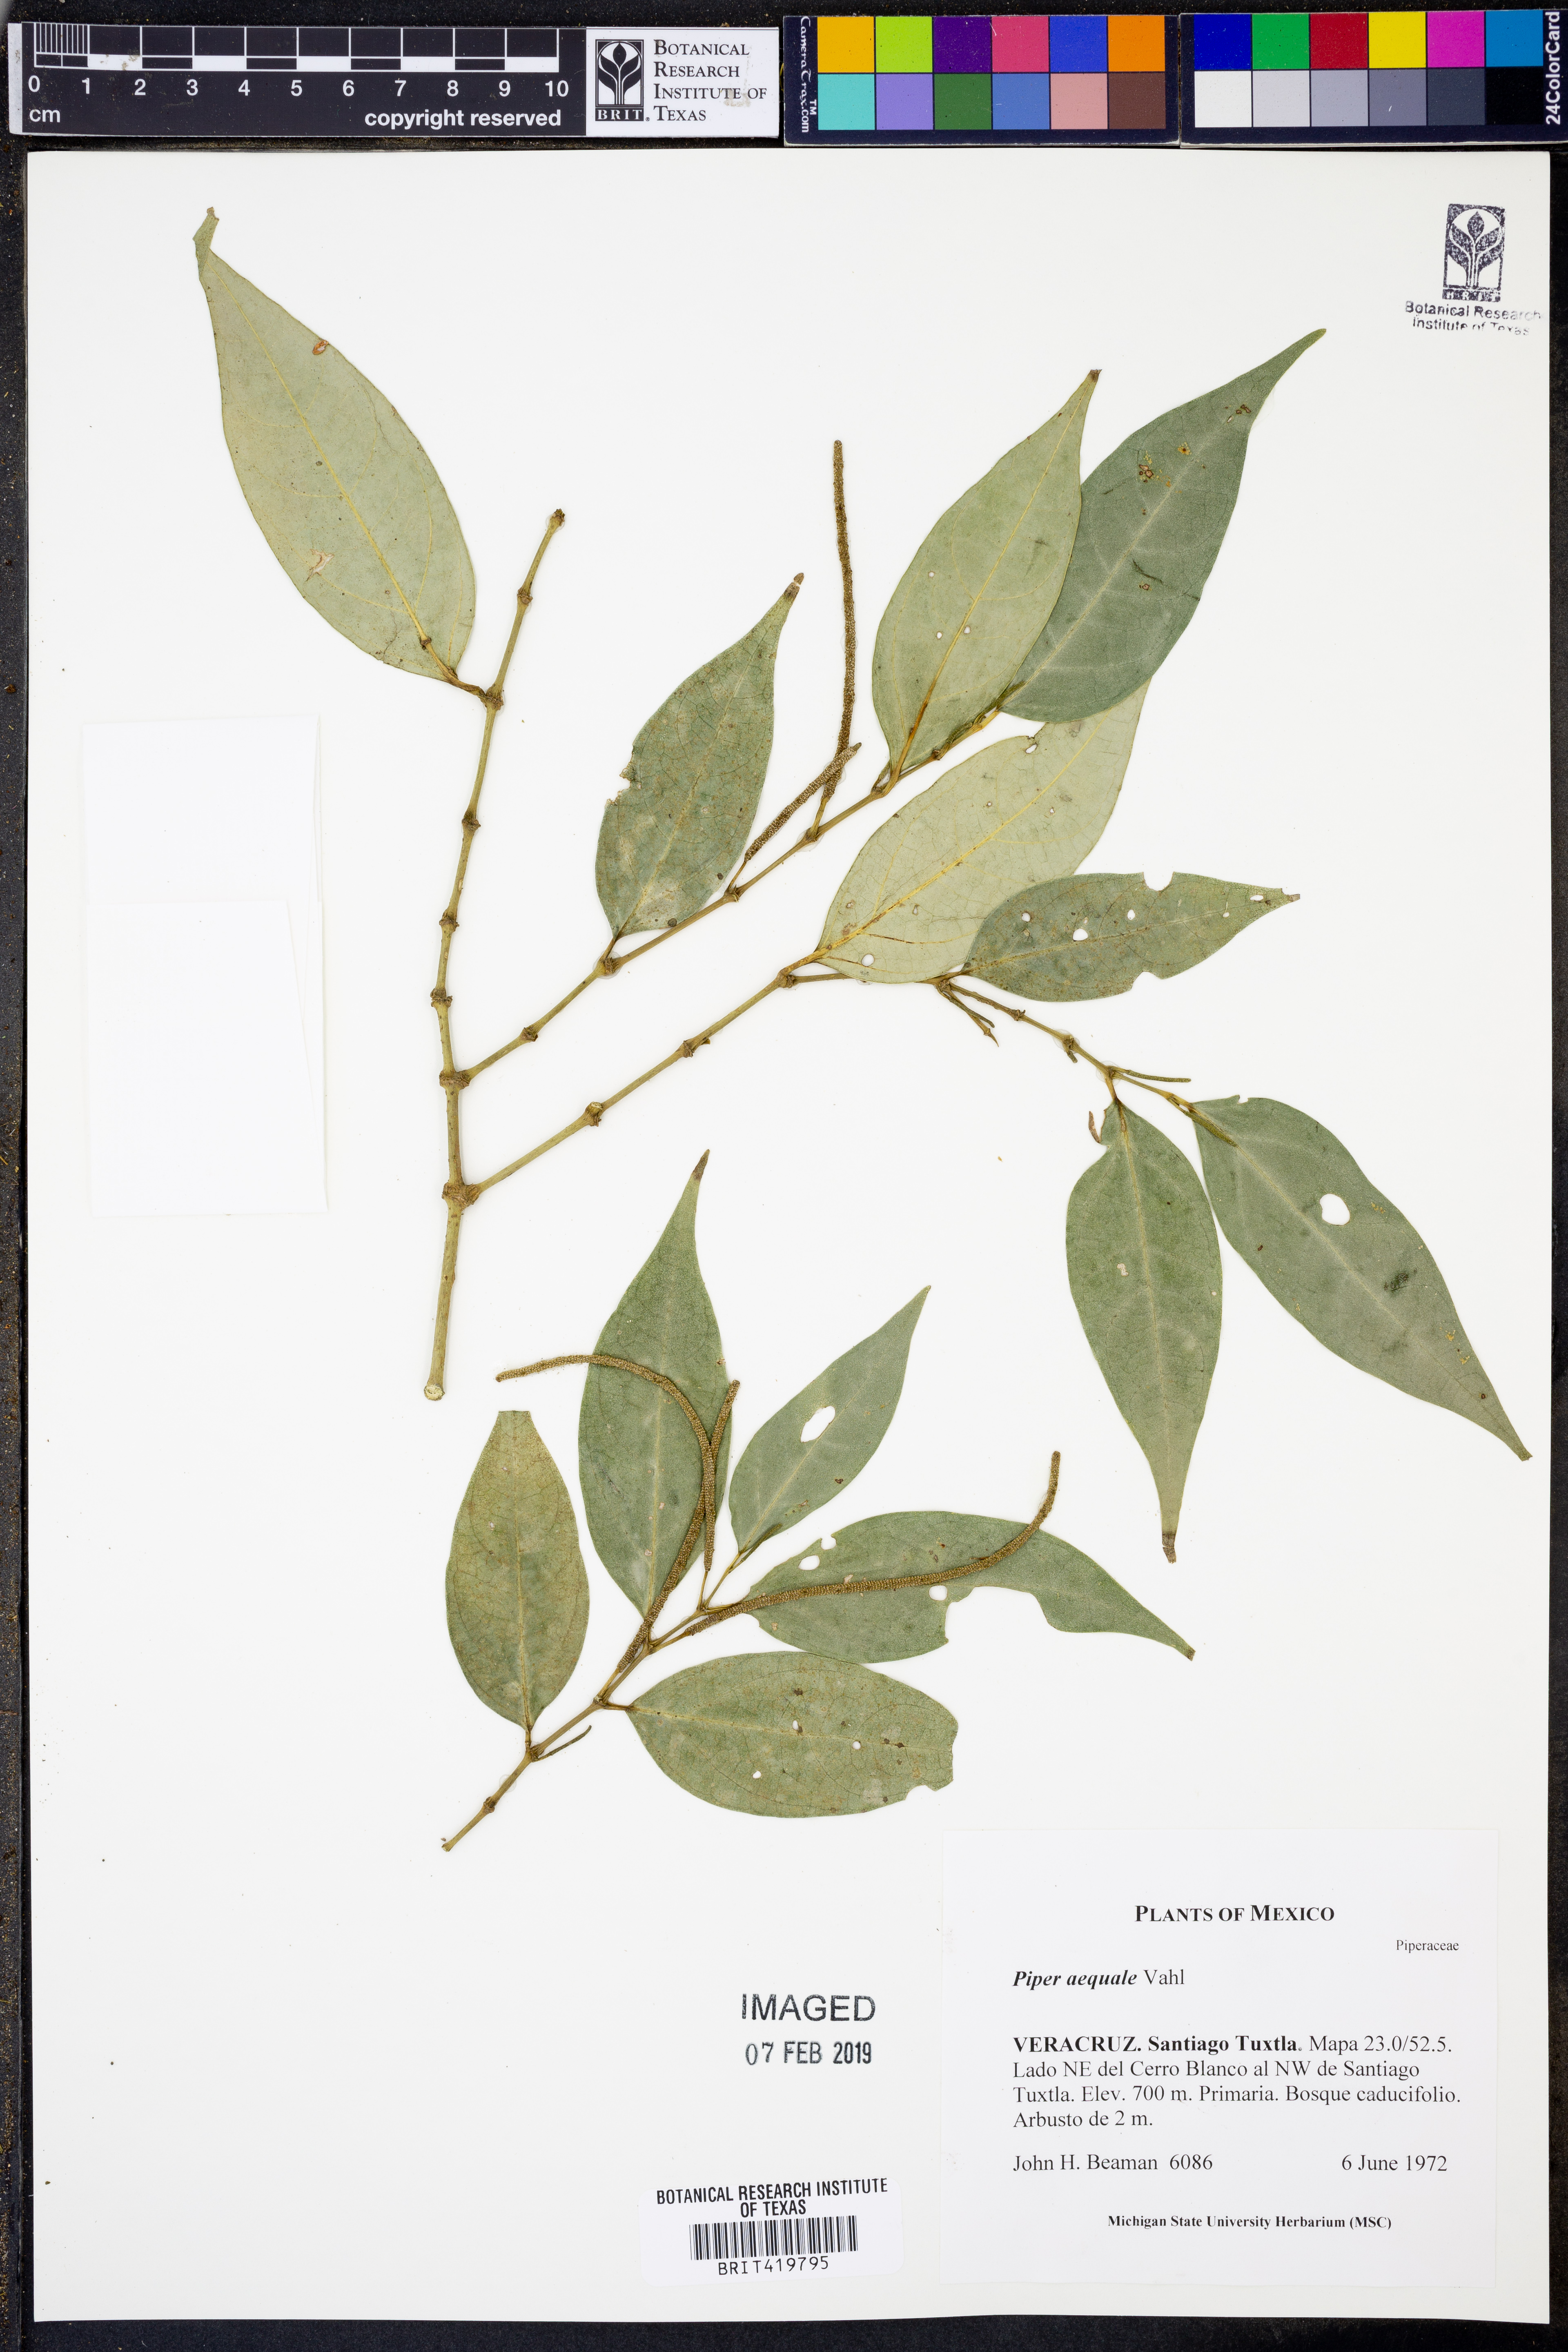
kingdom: Plantae
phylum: Tracheophyta
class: Magnoliopsida
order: Piperales
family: Piperaceae
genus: Piper
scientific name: Piper aequale
